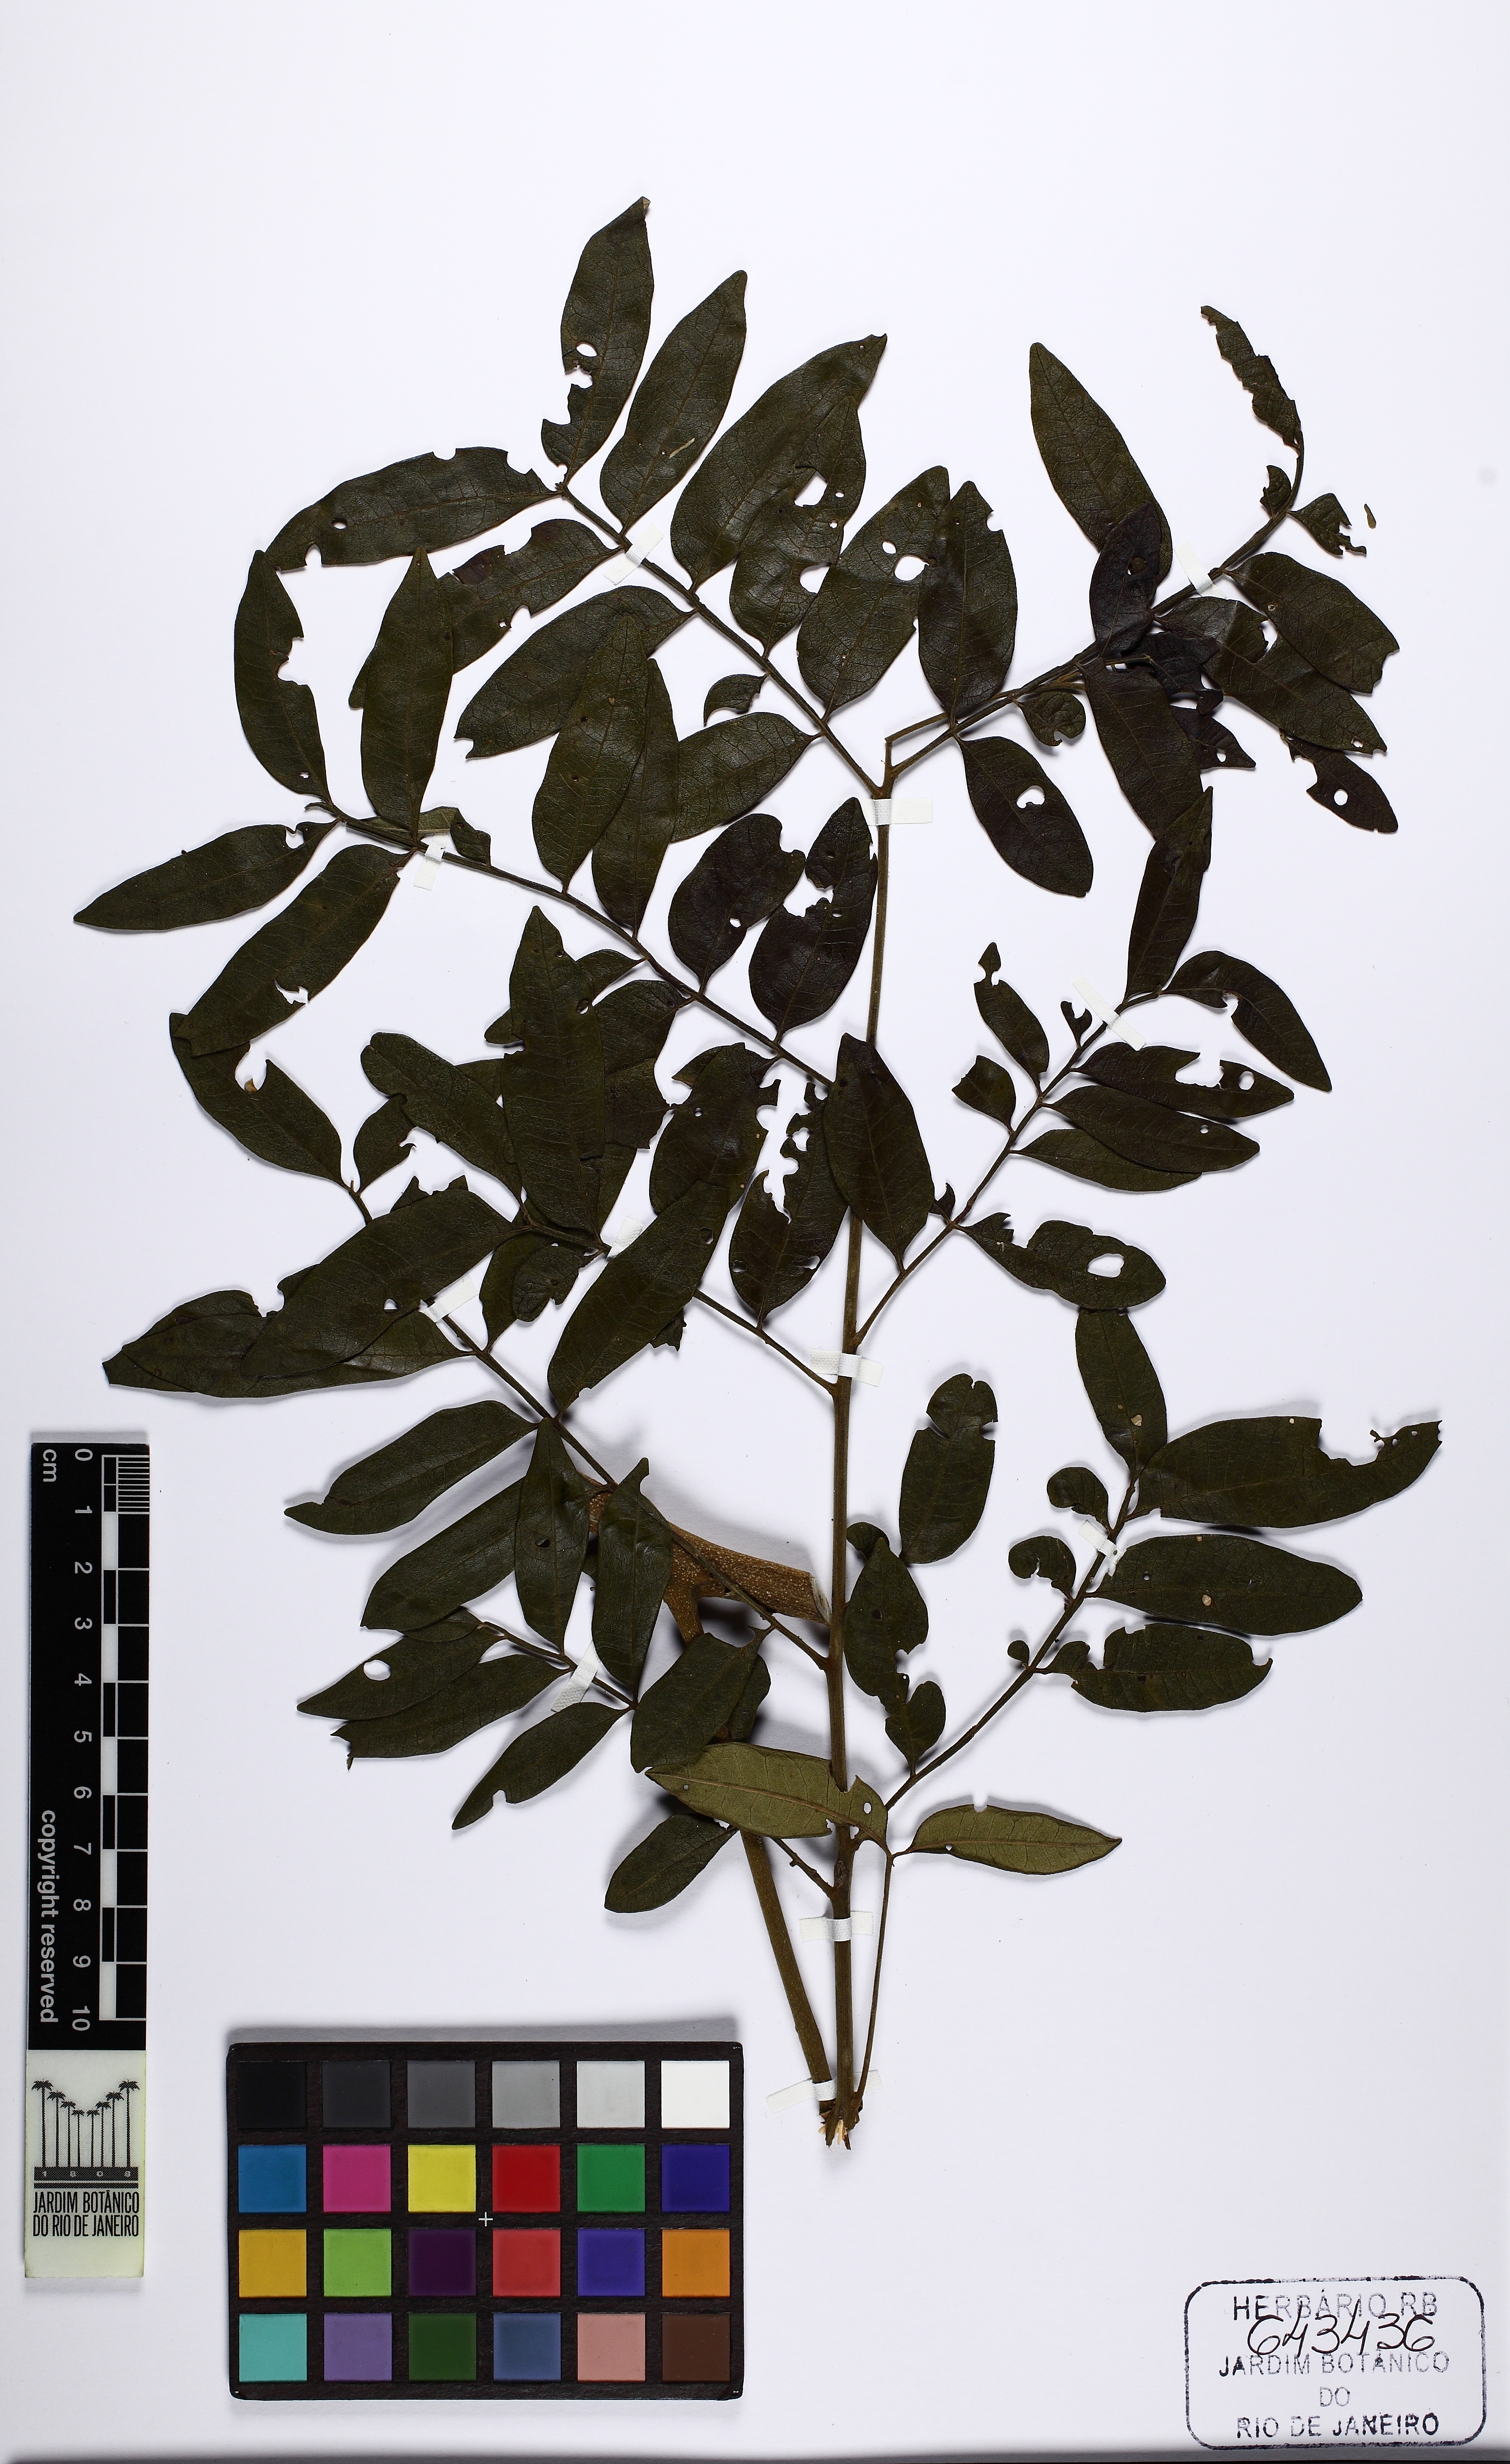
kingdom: Plantae
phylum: Tracheophyta
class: Magnoliopsida
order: Sapindales
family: Rutaceae
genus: Dictyoloma
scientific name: Dictyoloma vandellianum
